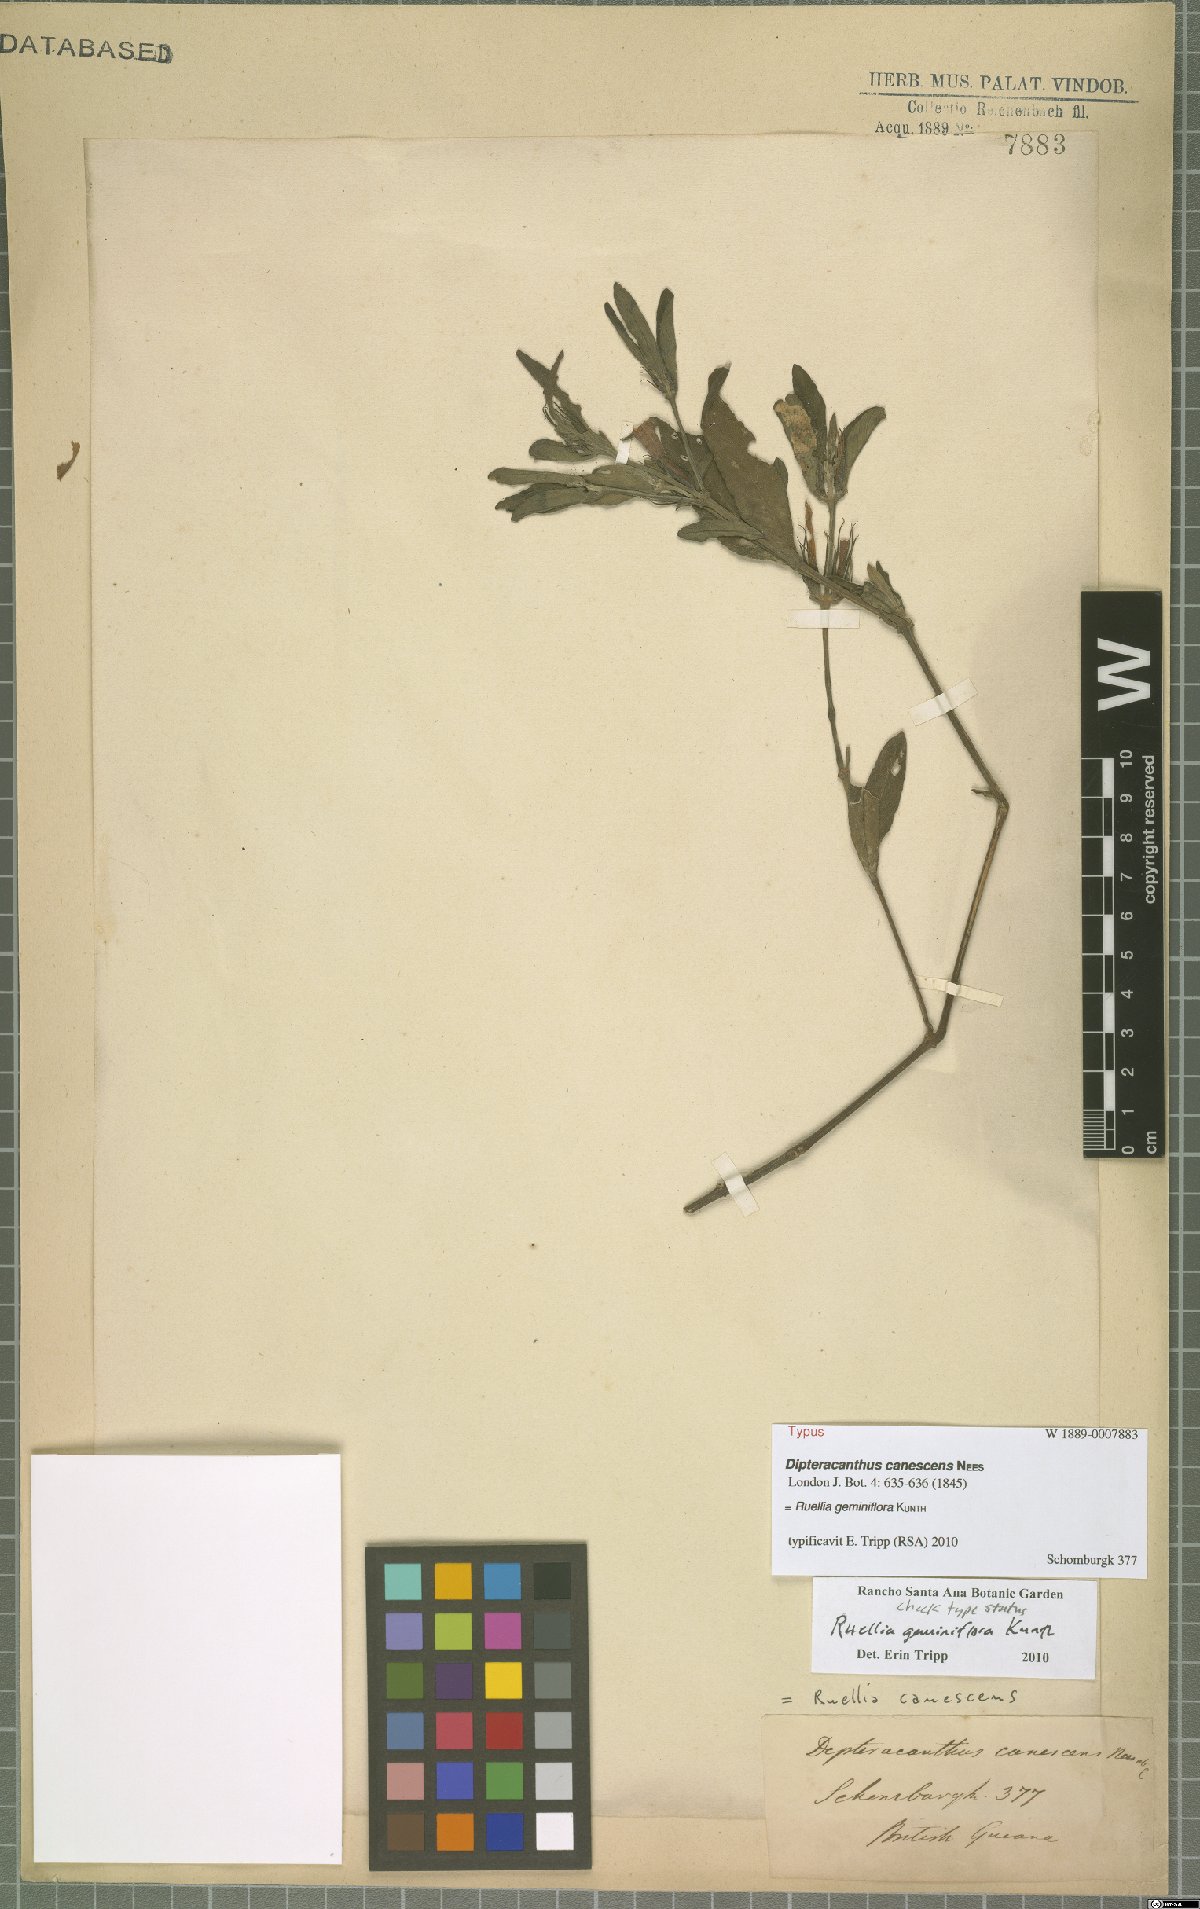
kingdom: Plantae
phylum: Tracheophyta
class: Magnoliopsida
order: Lamiales
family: Acanthaceae
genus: Ruellia
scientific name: Ruellia geminiflora
